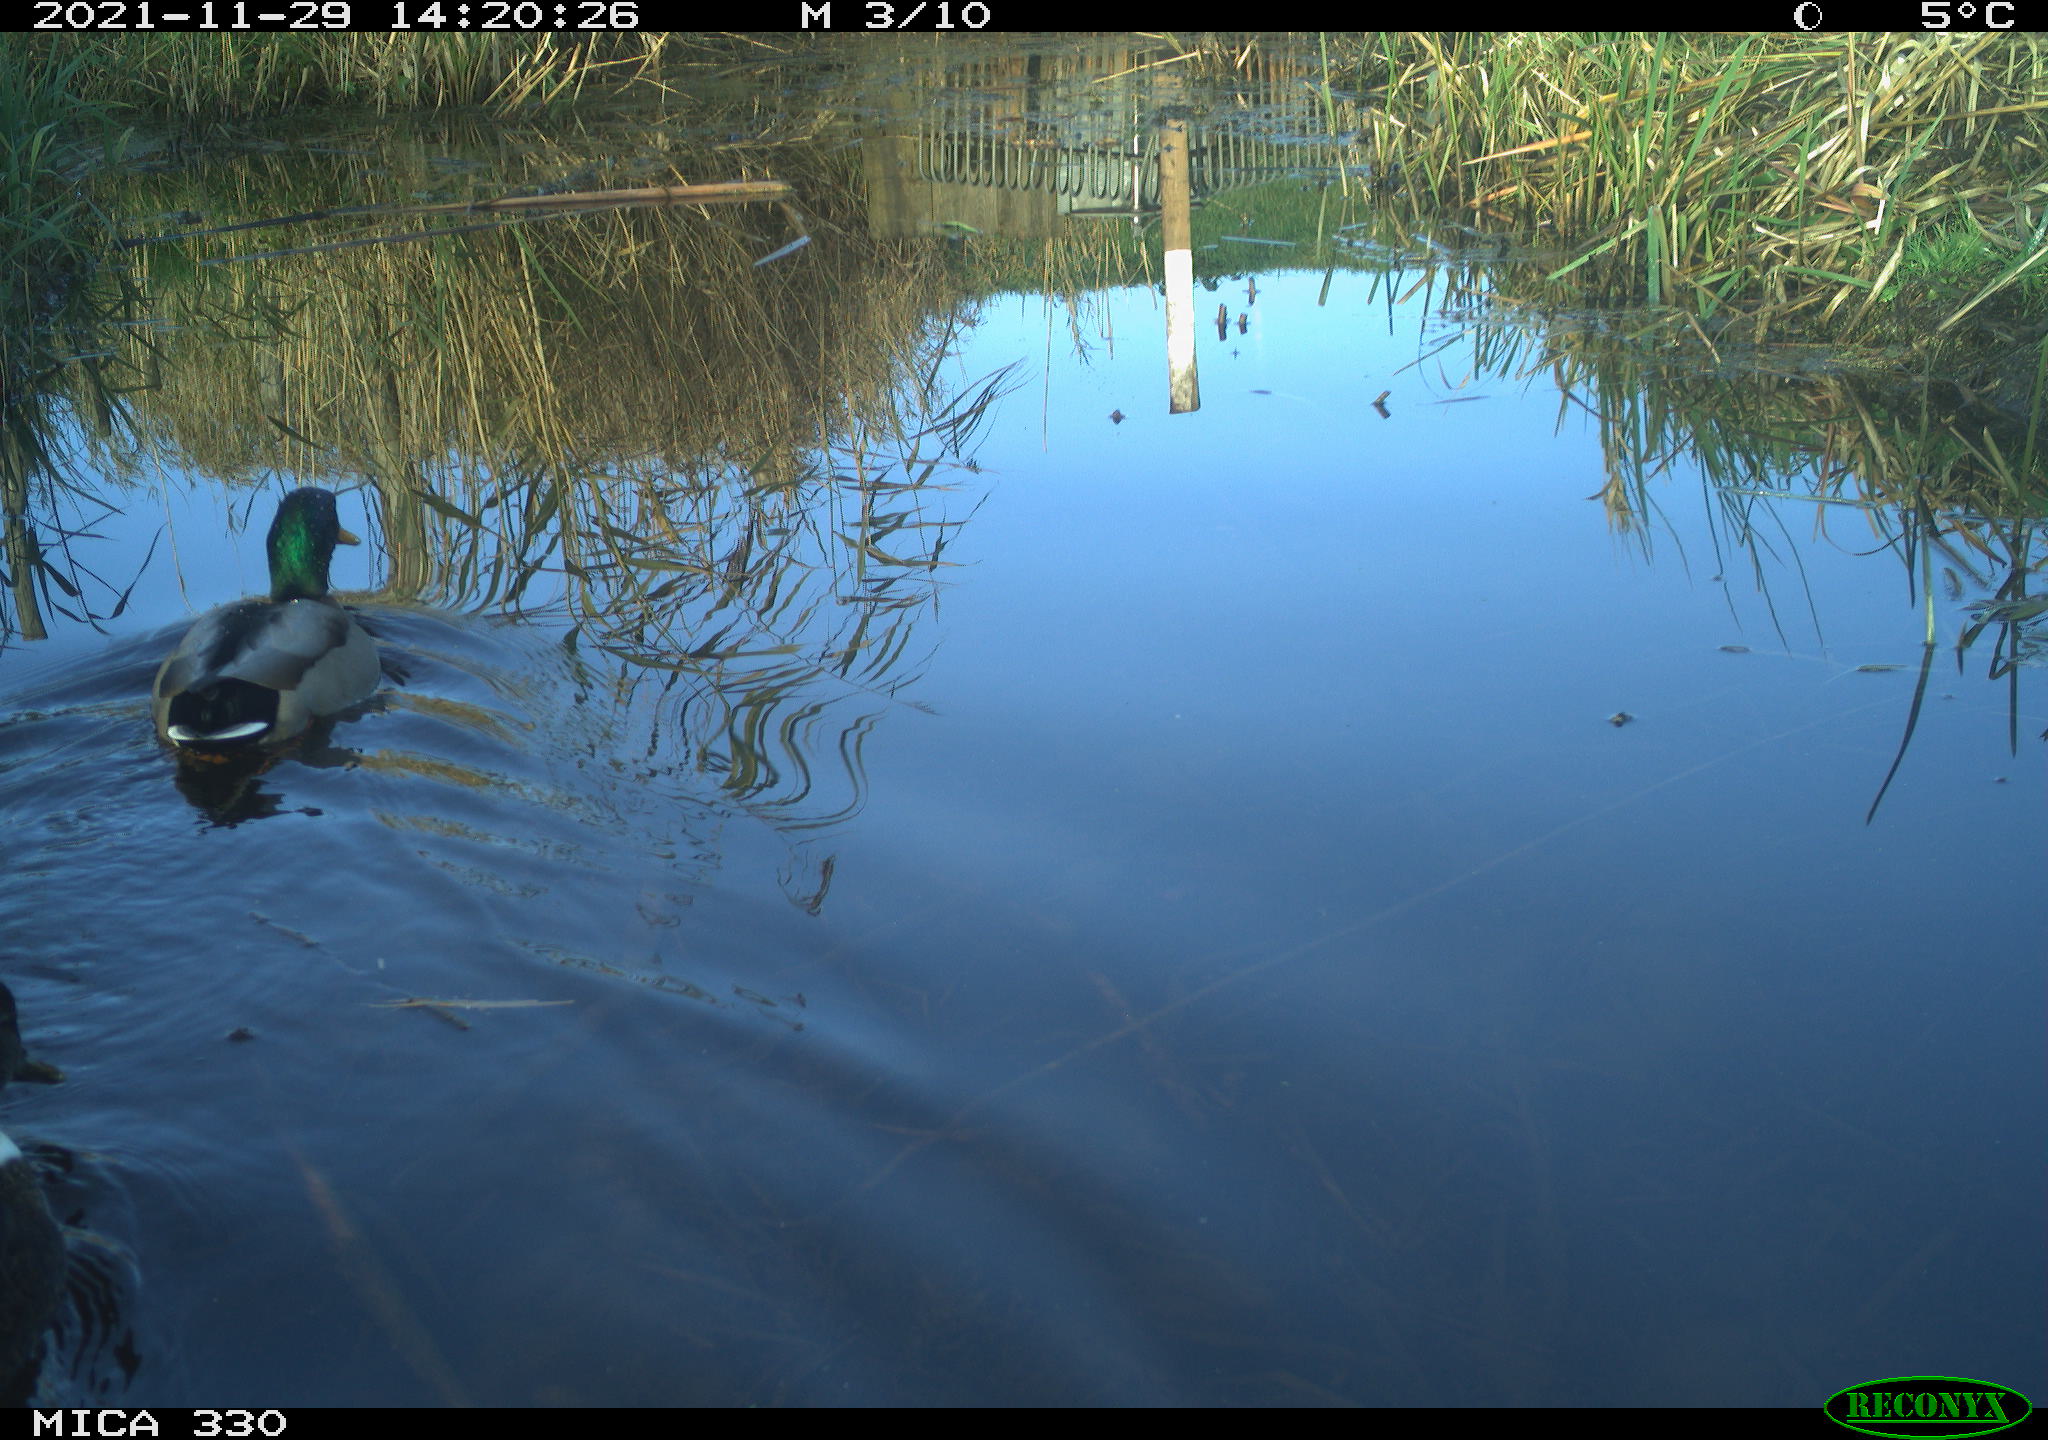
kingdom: Animalia
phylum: Chordata
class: Aves
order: Anseriformes
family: Anatidae
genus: Anas
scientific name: Anas platyrhynchos
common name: Mallard
